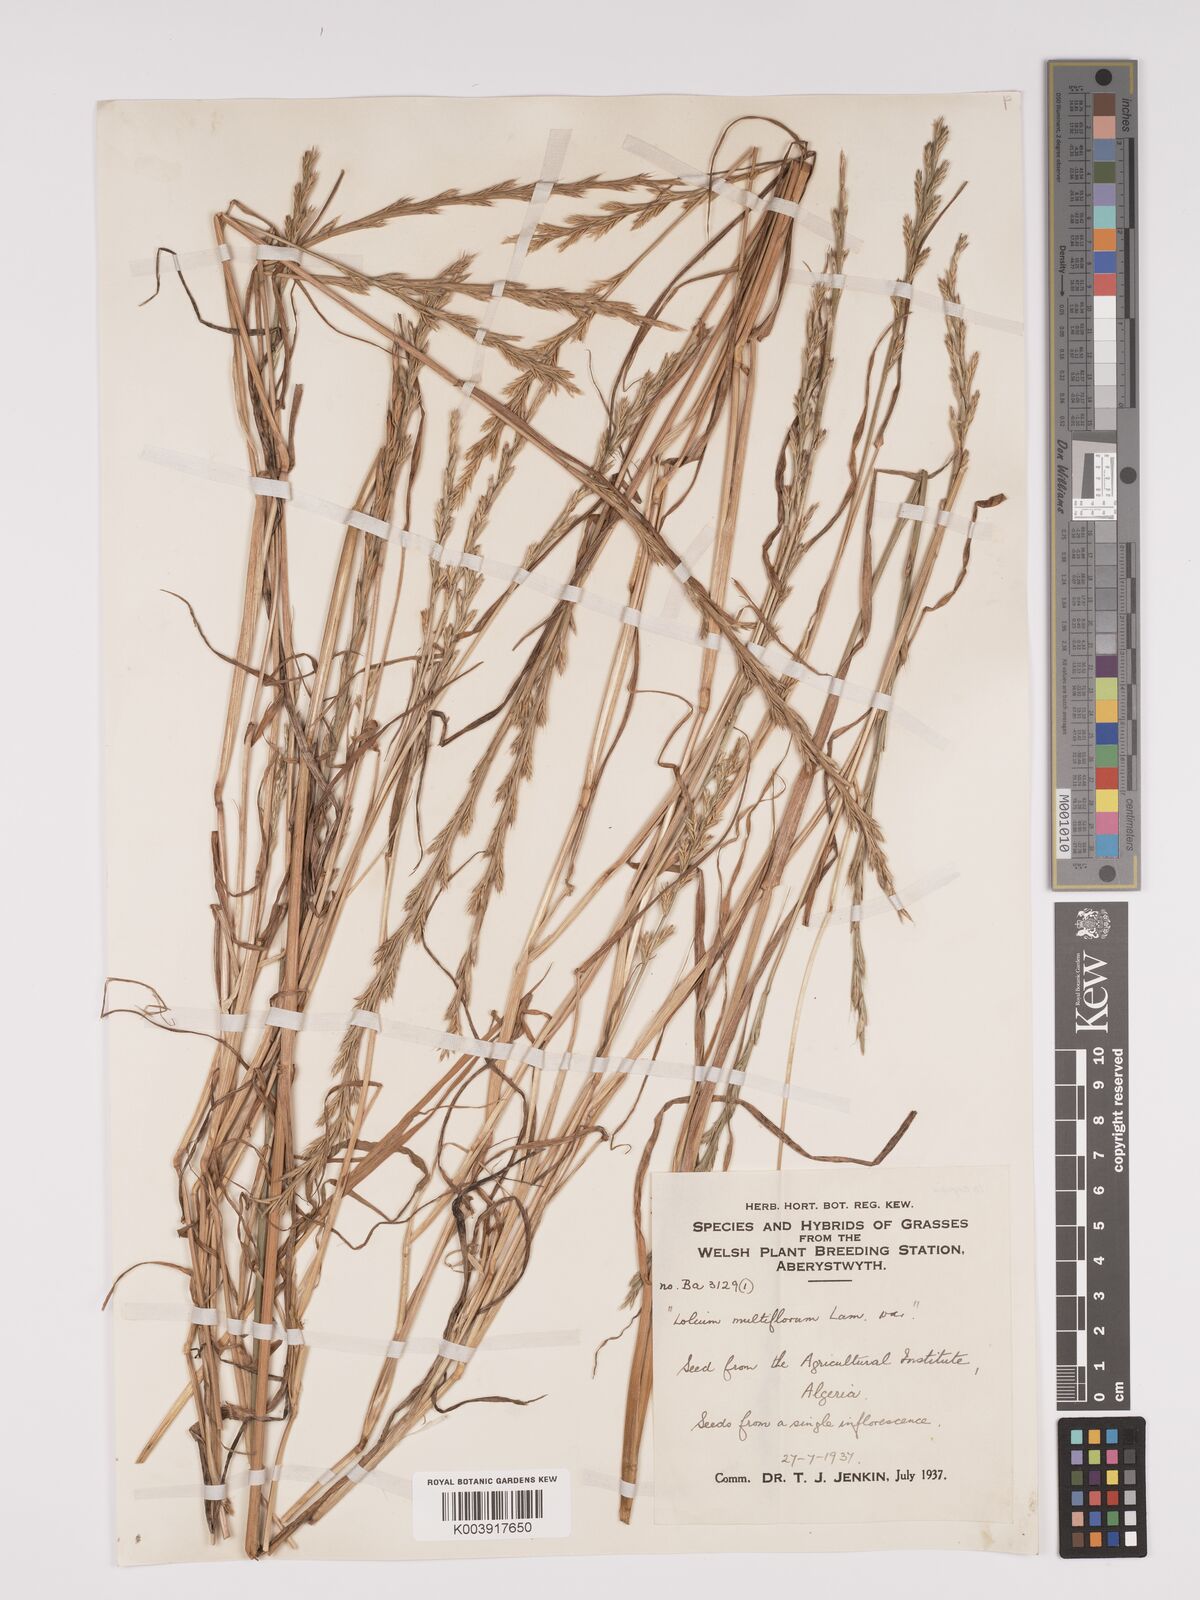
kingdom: Plantae
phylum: Tracheophyta
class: Liliopsida
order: Poales
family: Poaceae
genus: Lolium
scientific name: Lolium multiflorum
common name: Annual ryegrass
